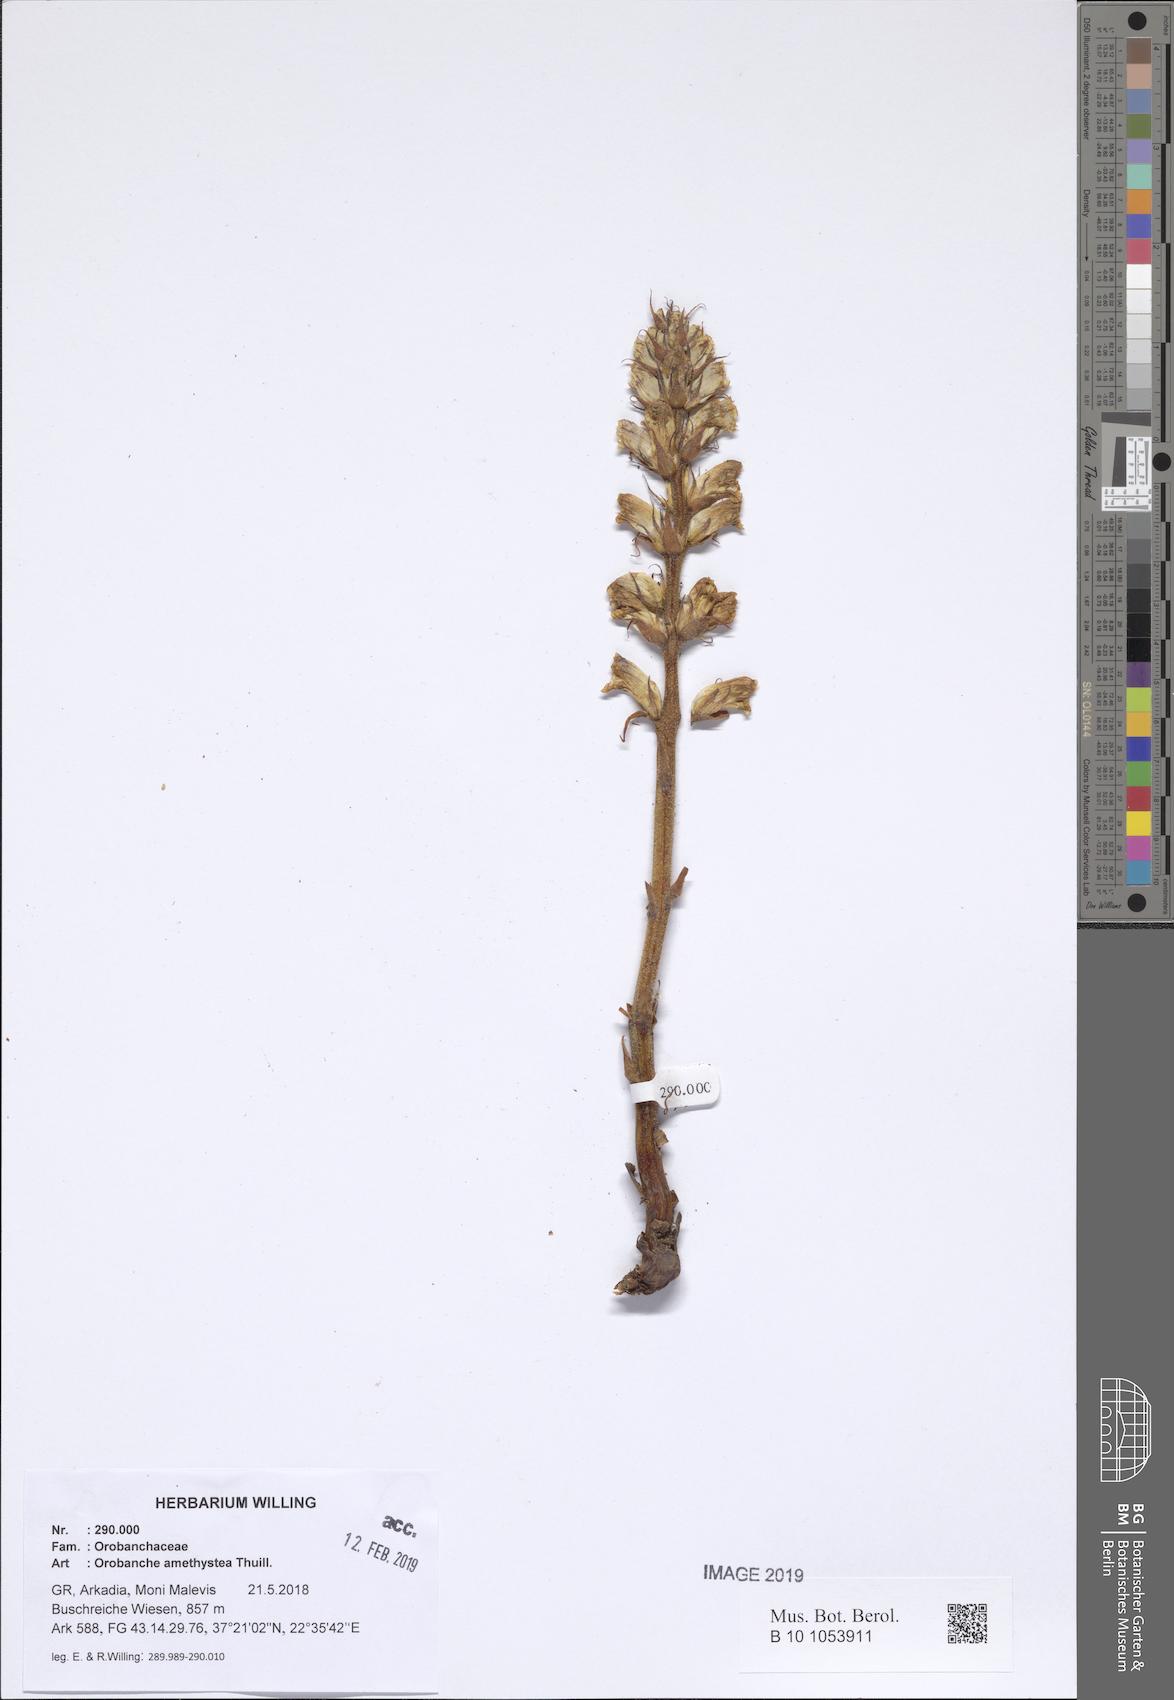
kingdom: Plantae
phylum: Tracheophyta
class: Magnoliopsida
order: Lamiales
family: Orobanchaceae
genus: Orobanche
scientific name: Orobanche amethystea
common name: Amethyst broomrape
